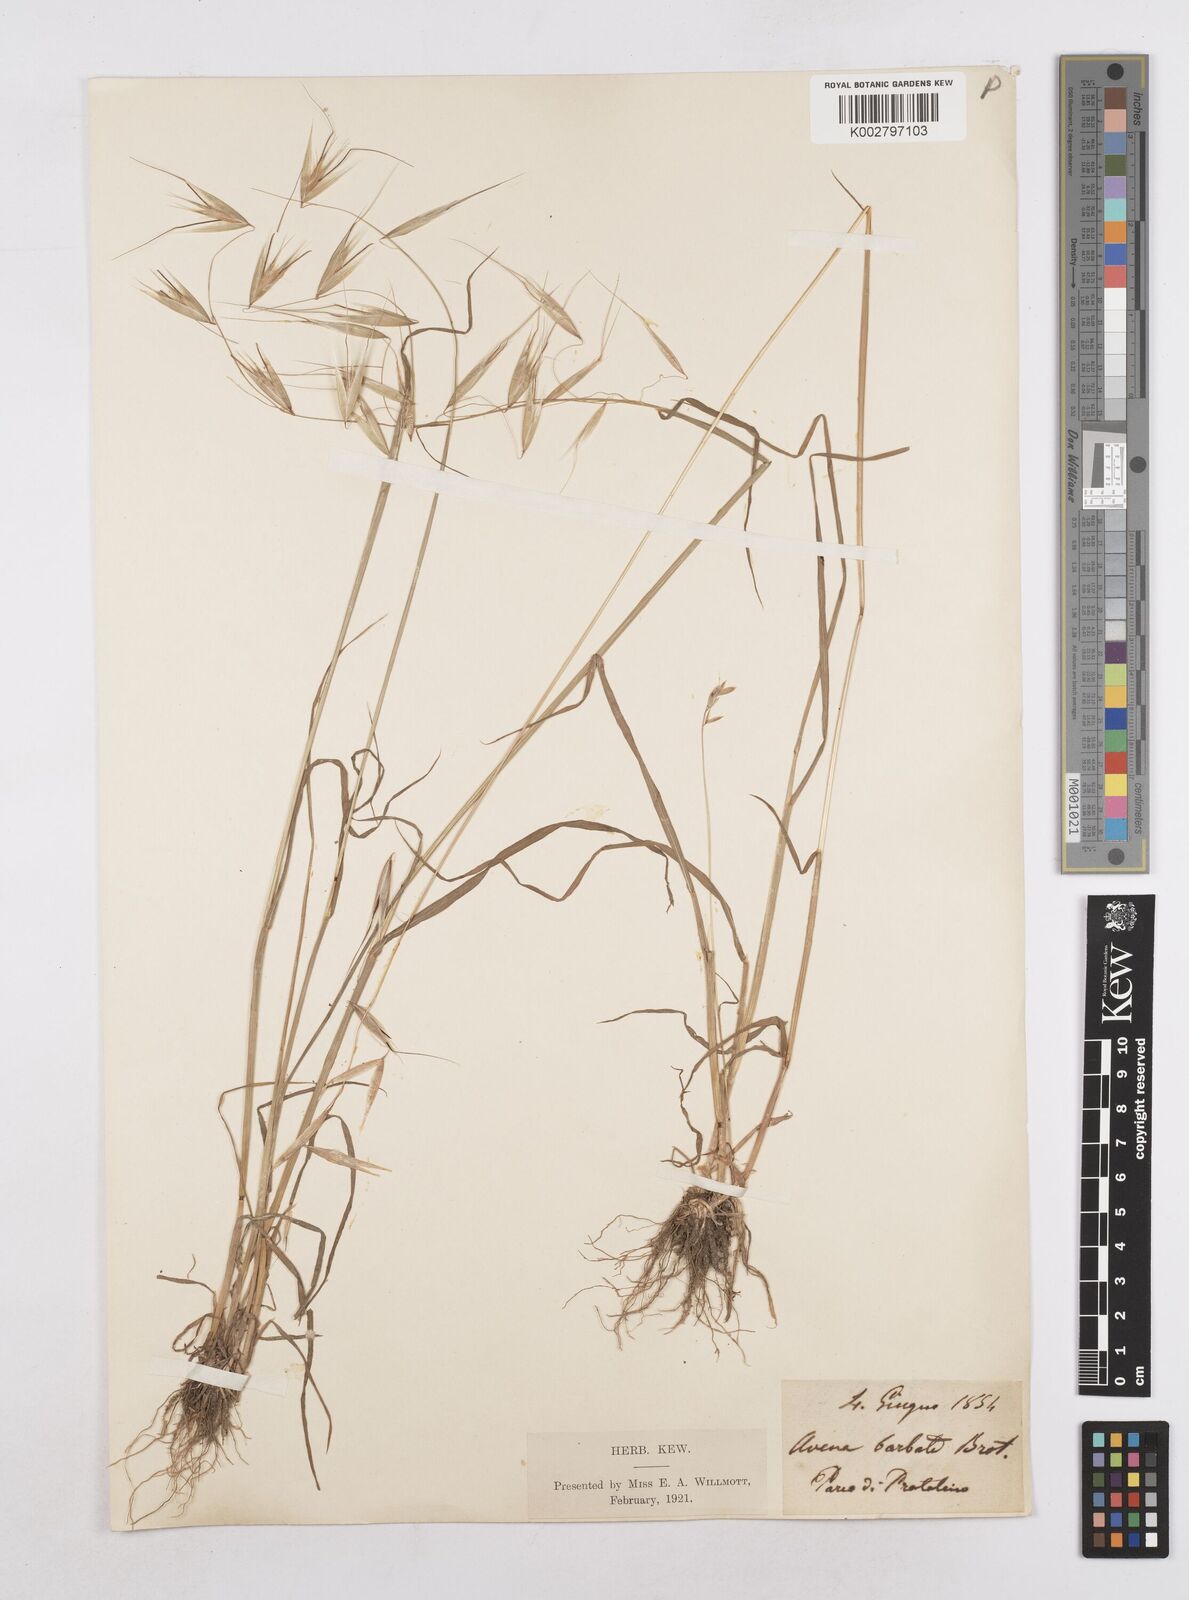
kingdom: Plantae
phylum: Tracheophyta
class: Liliopsida
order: Poales
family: Poaceae
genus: Avena
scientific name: Avena
